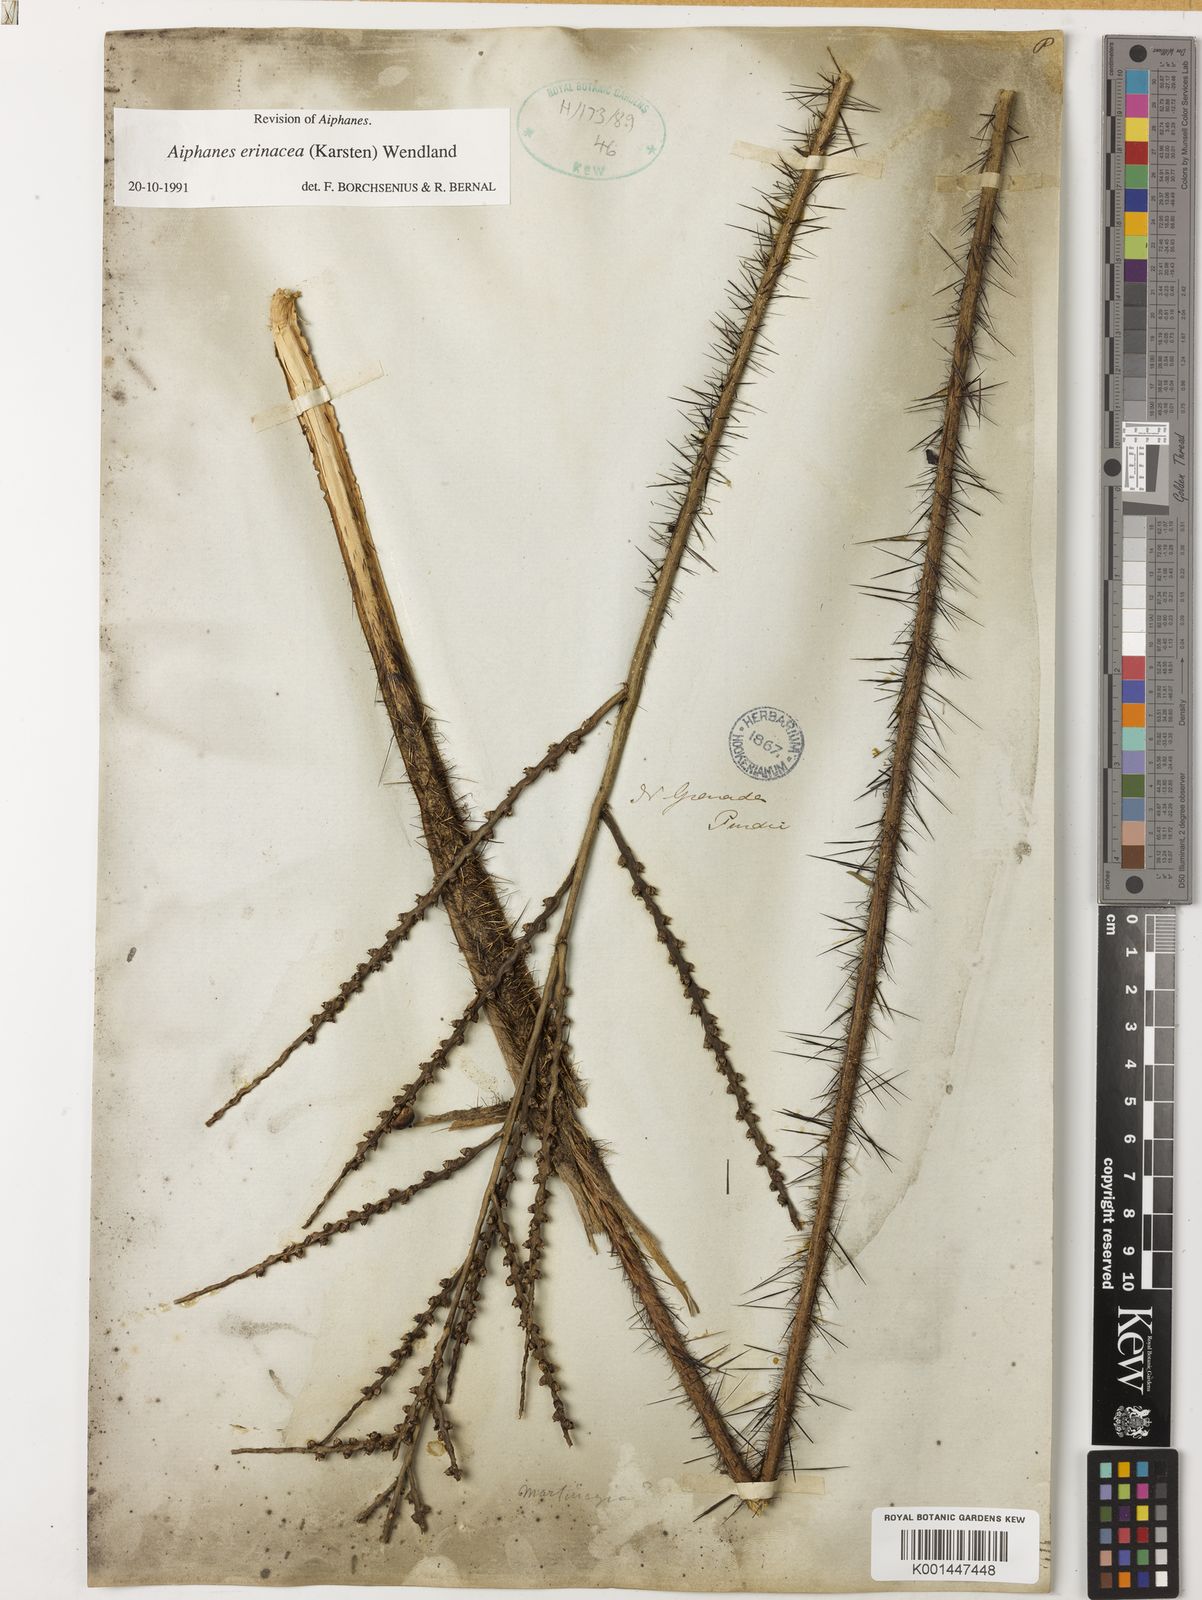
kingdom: Plantae
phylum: Tracheophyta
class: Liliopsida
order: Arecales
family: Arecaceae
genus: Aiphanes
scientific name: Aiphanes erinacea
